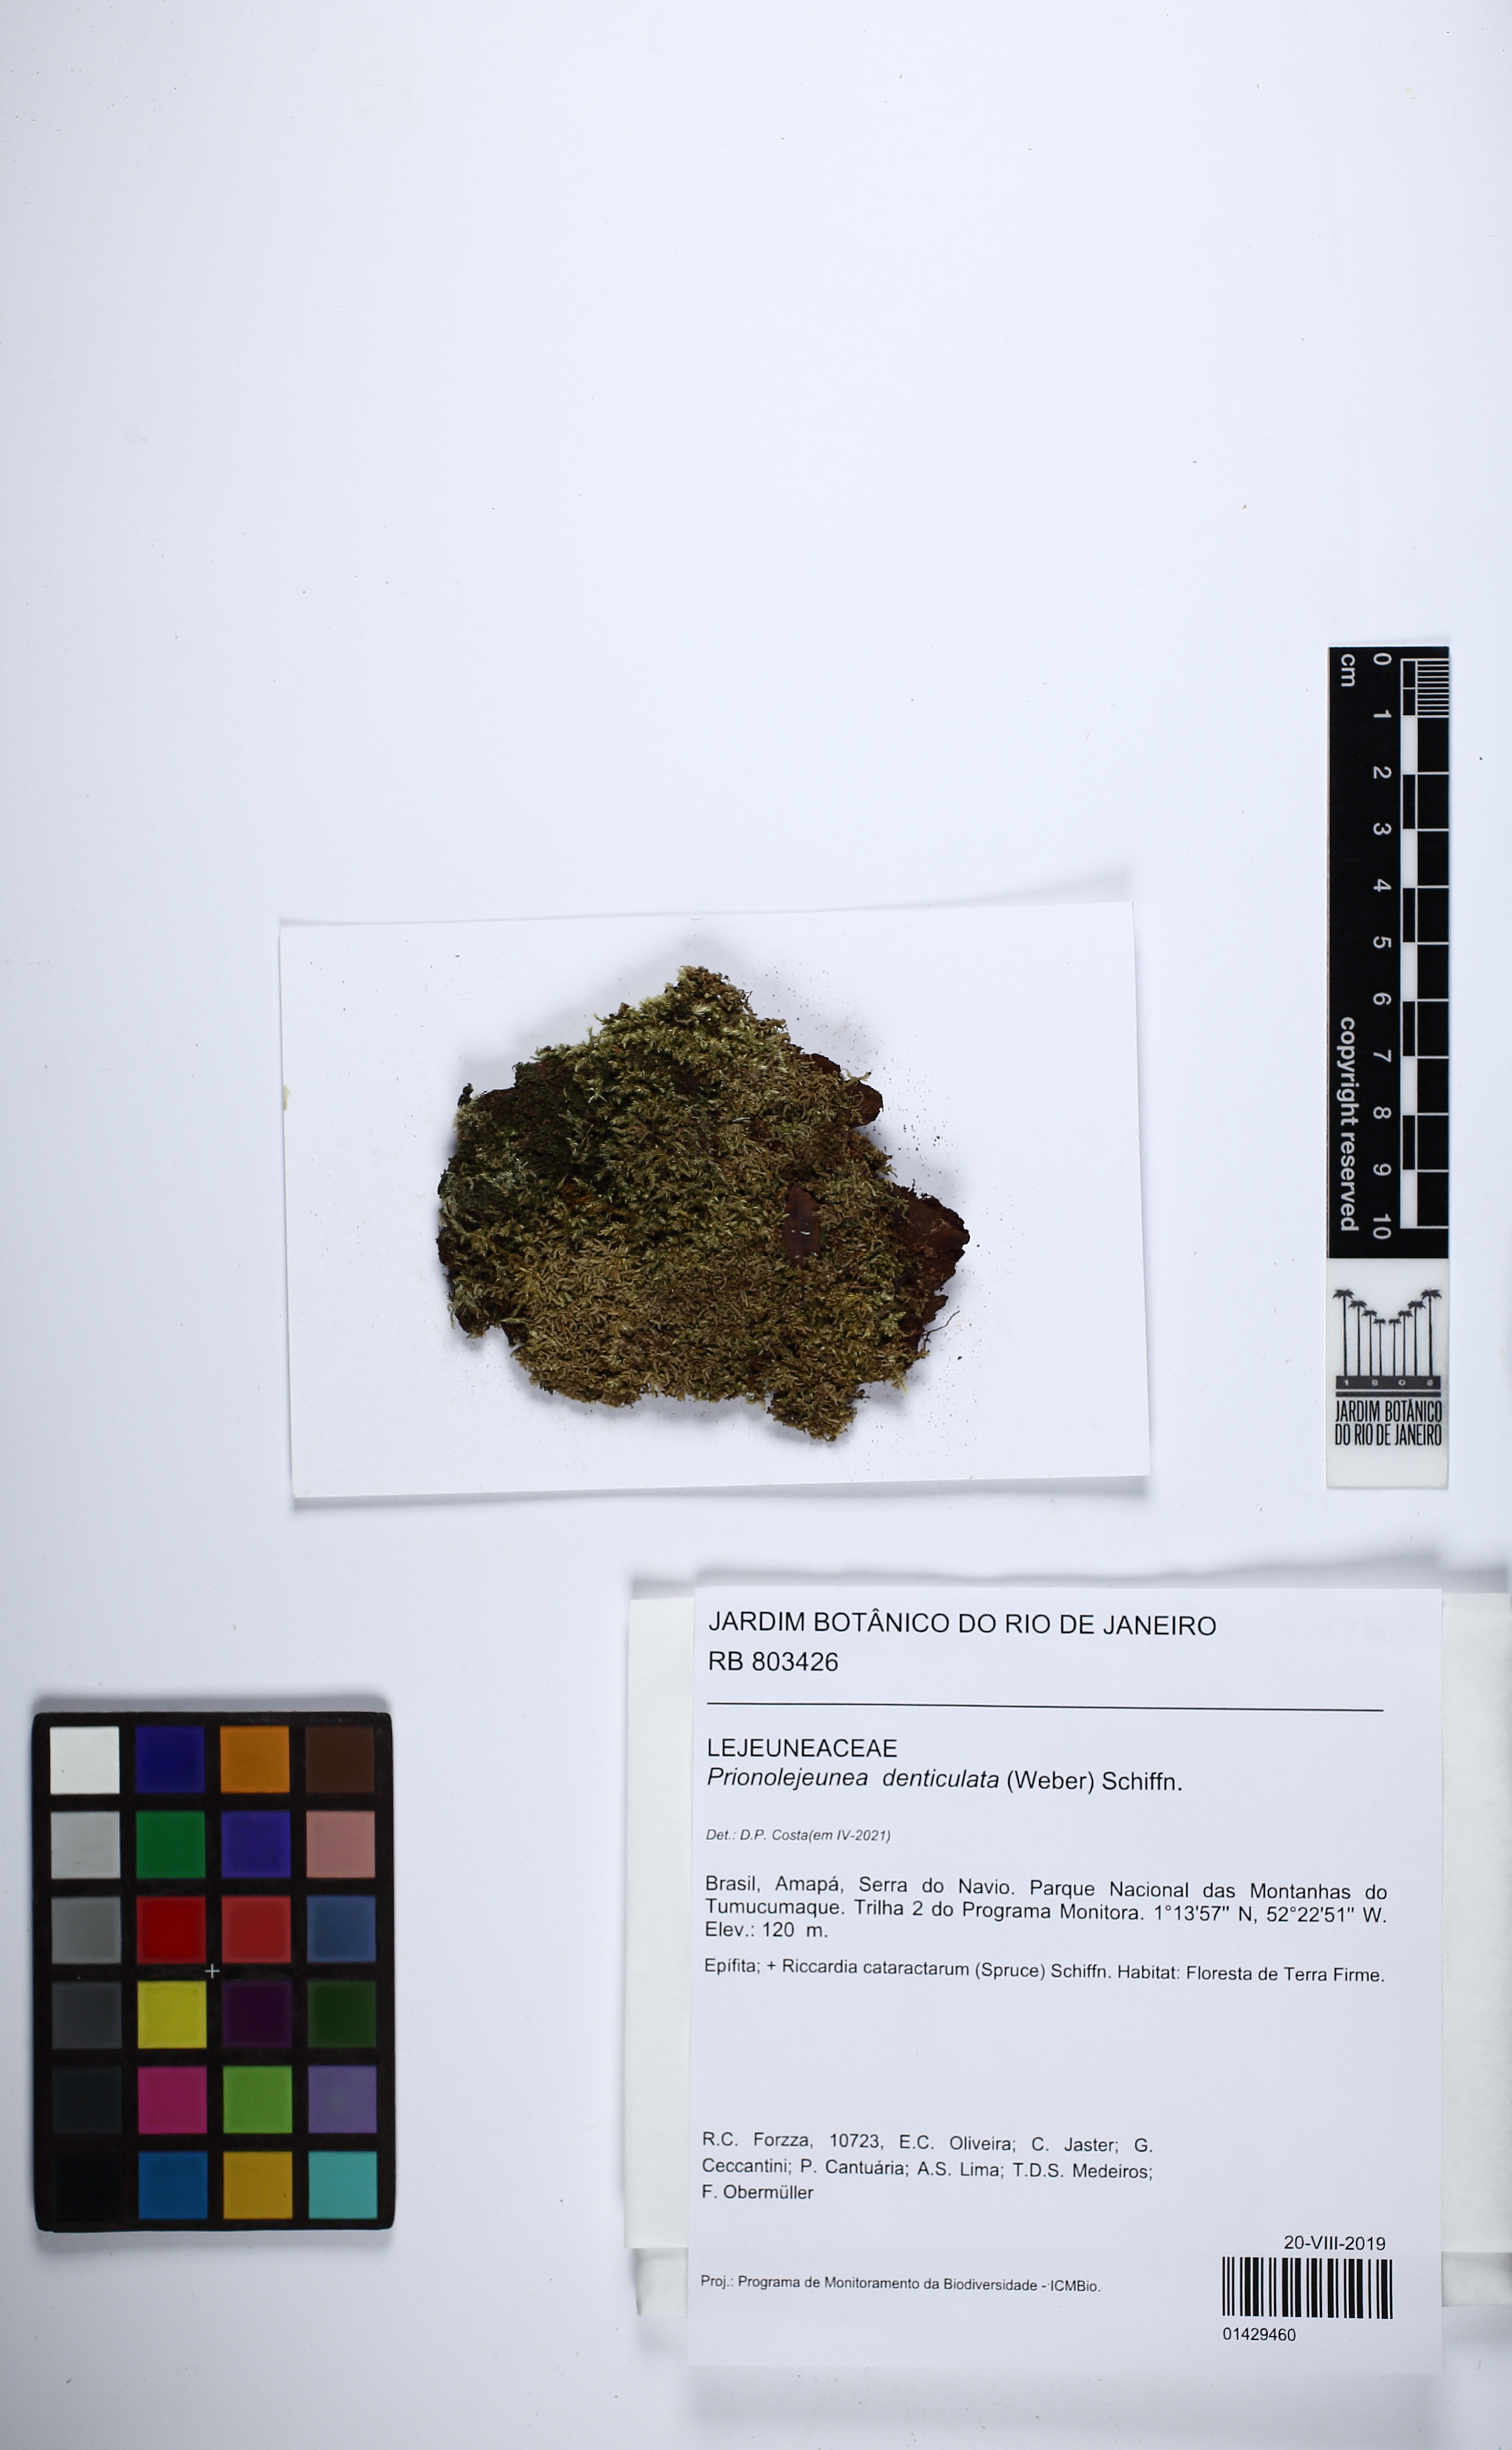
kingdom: Plantae
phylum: Marchantiophyta
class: Jungermanniopsida
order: Porellales
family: Lejeuneaceae
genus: Prionolejeunea
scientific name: Prionolejeunea denticulata
